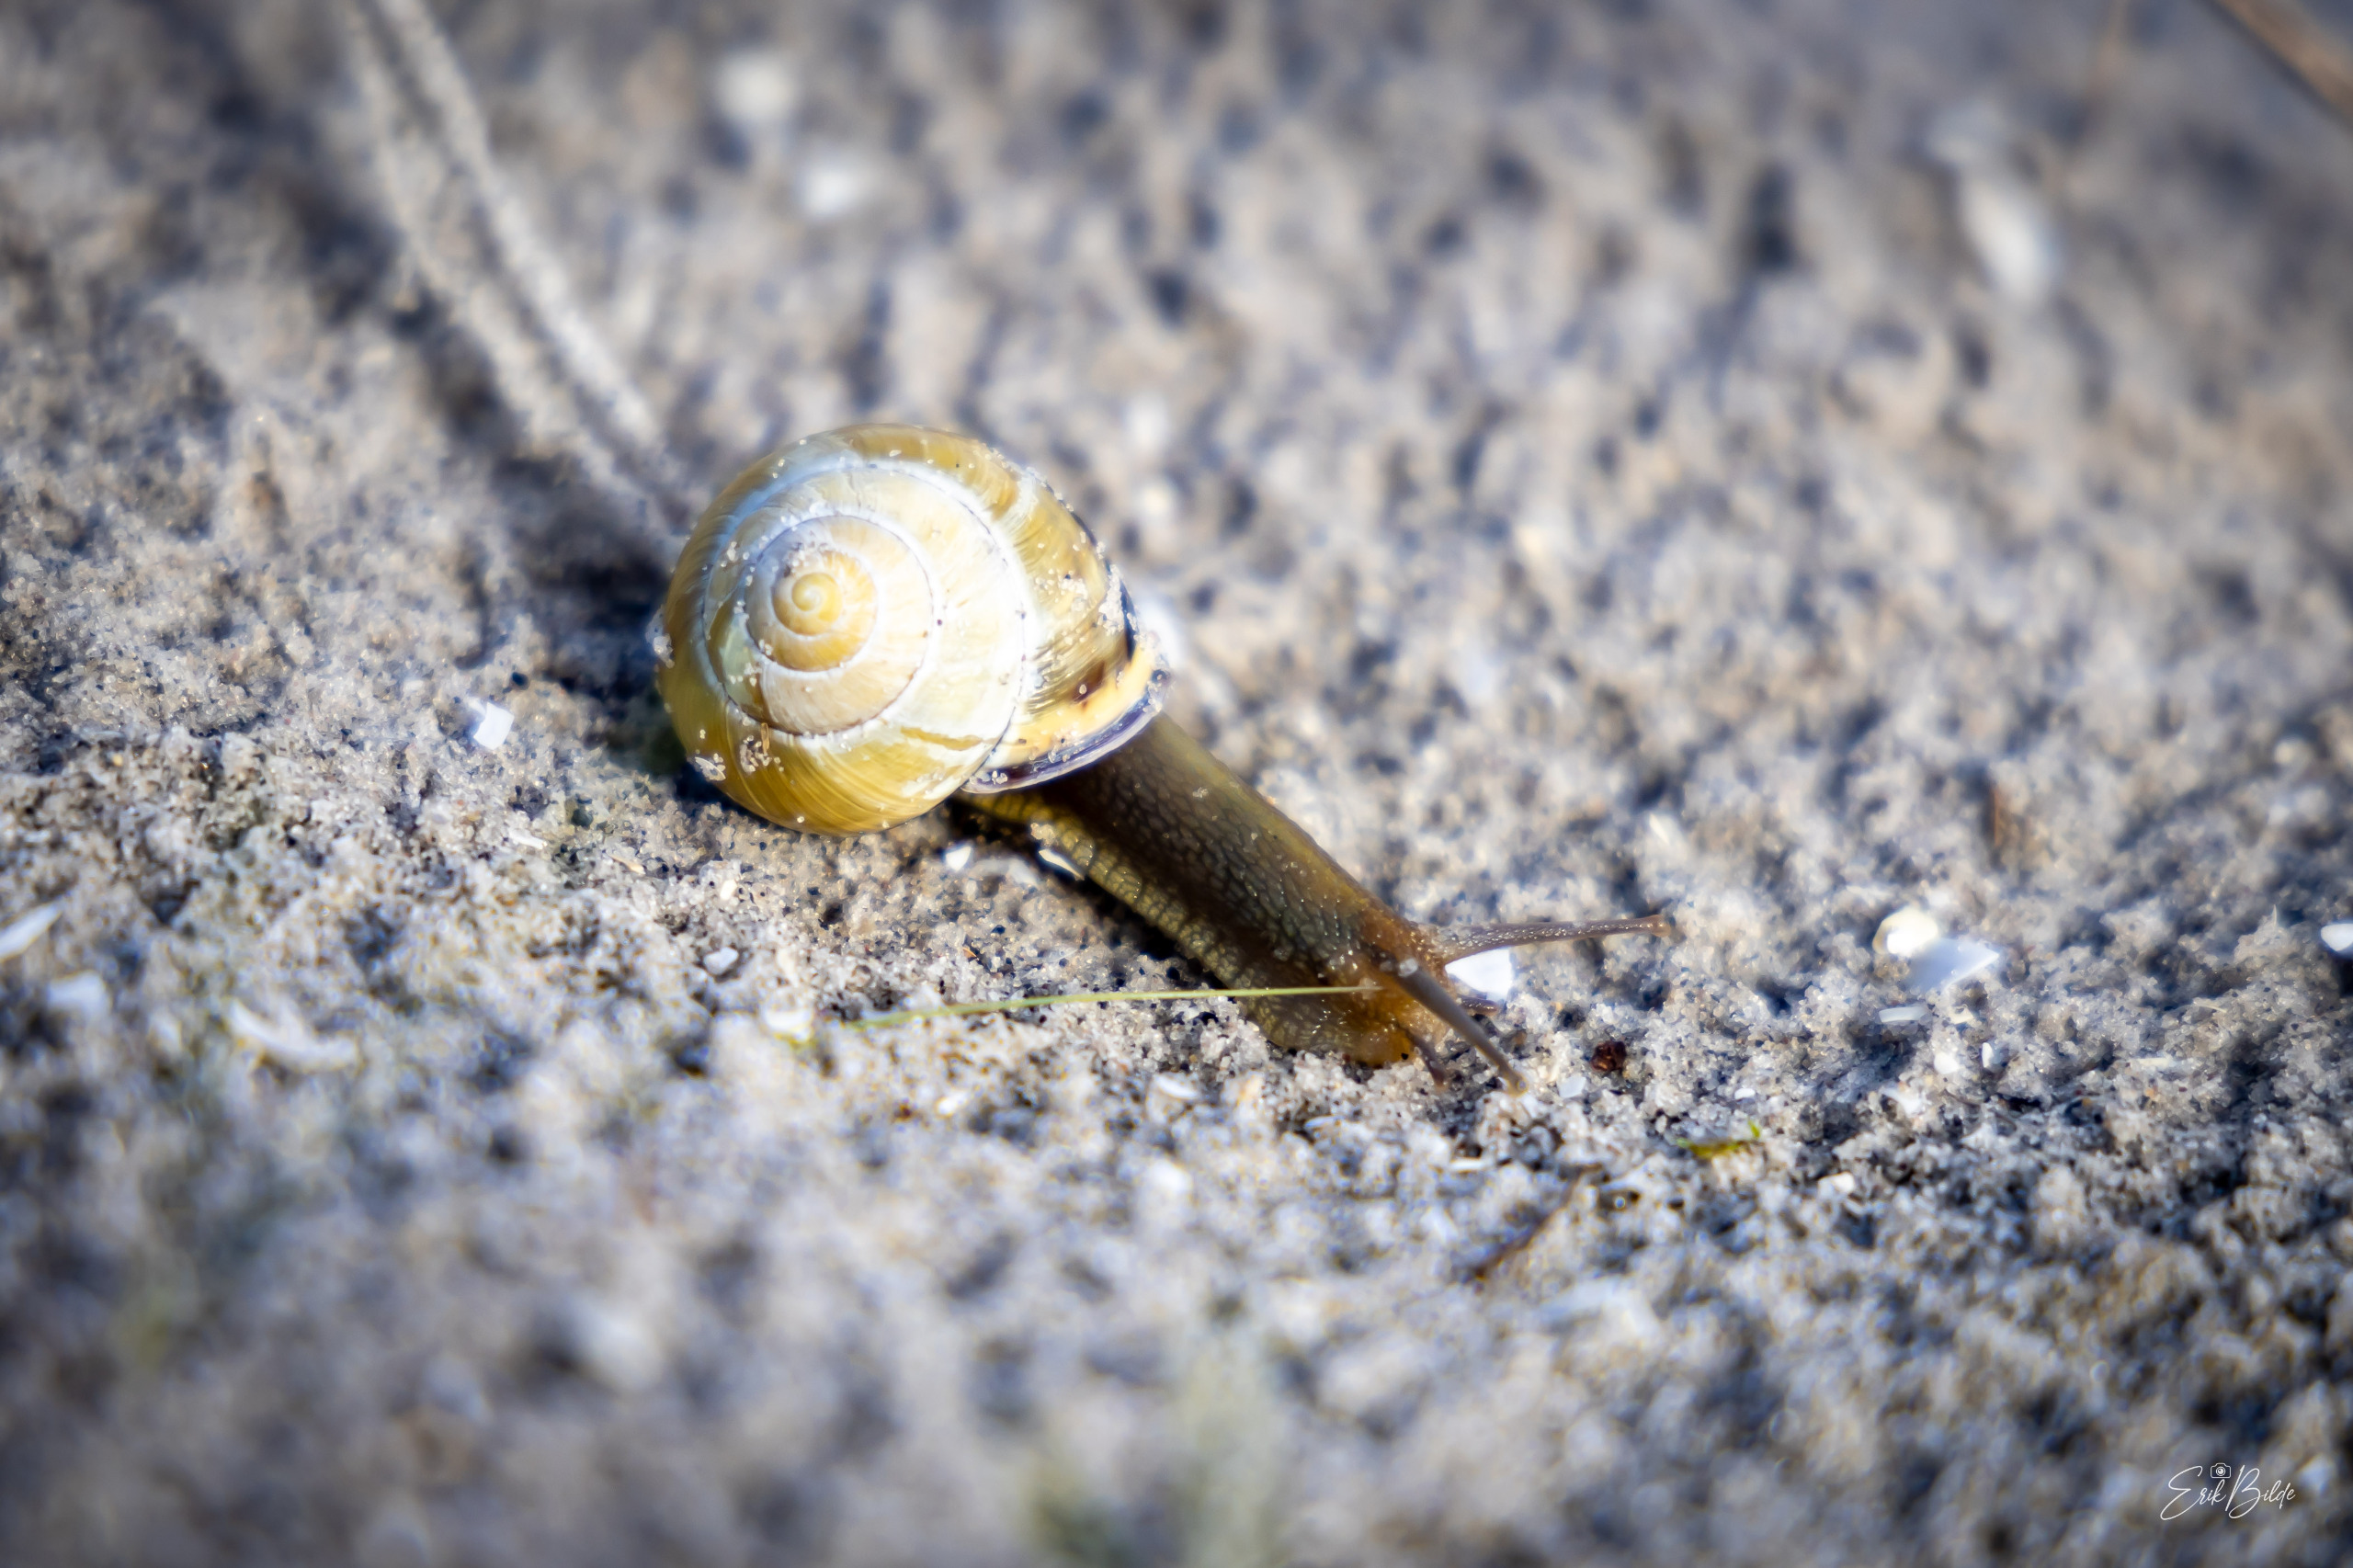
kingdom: Animalia
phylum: Mollusca
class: Gastropoda
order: Stylommatophora
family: Helicidae
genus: Cepaea
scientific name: Cepaea nemoralis
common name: Lundsnegl
